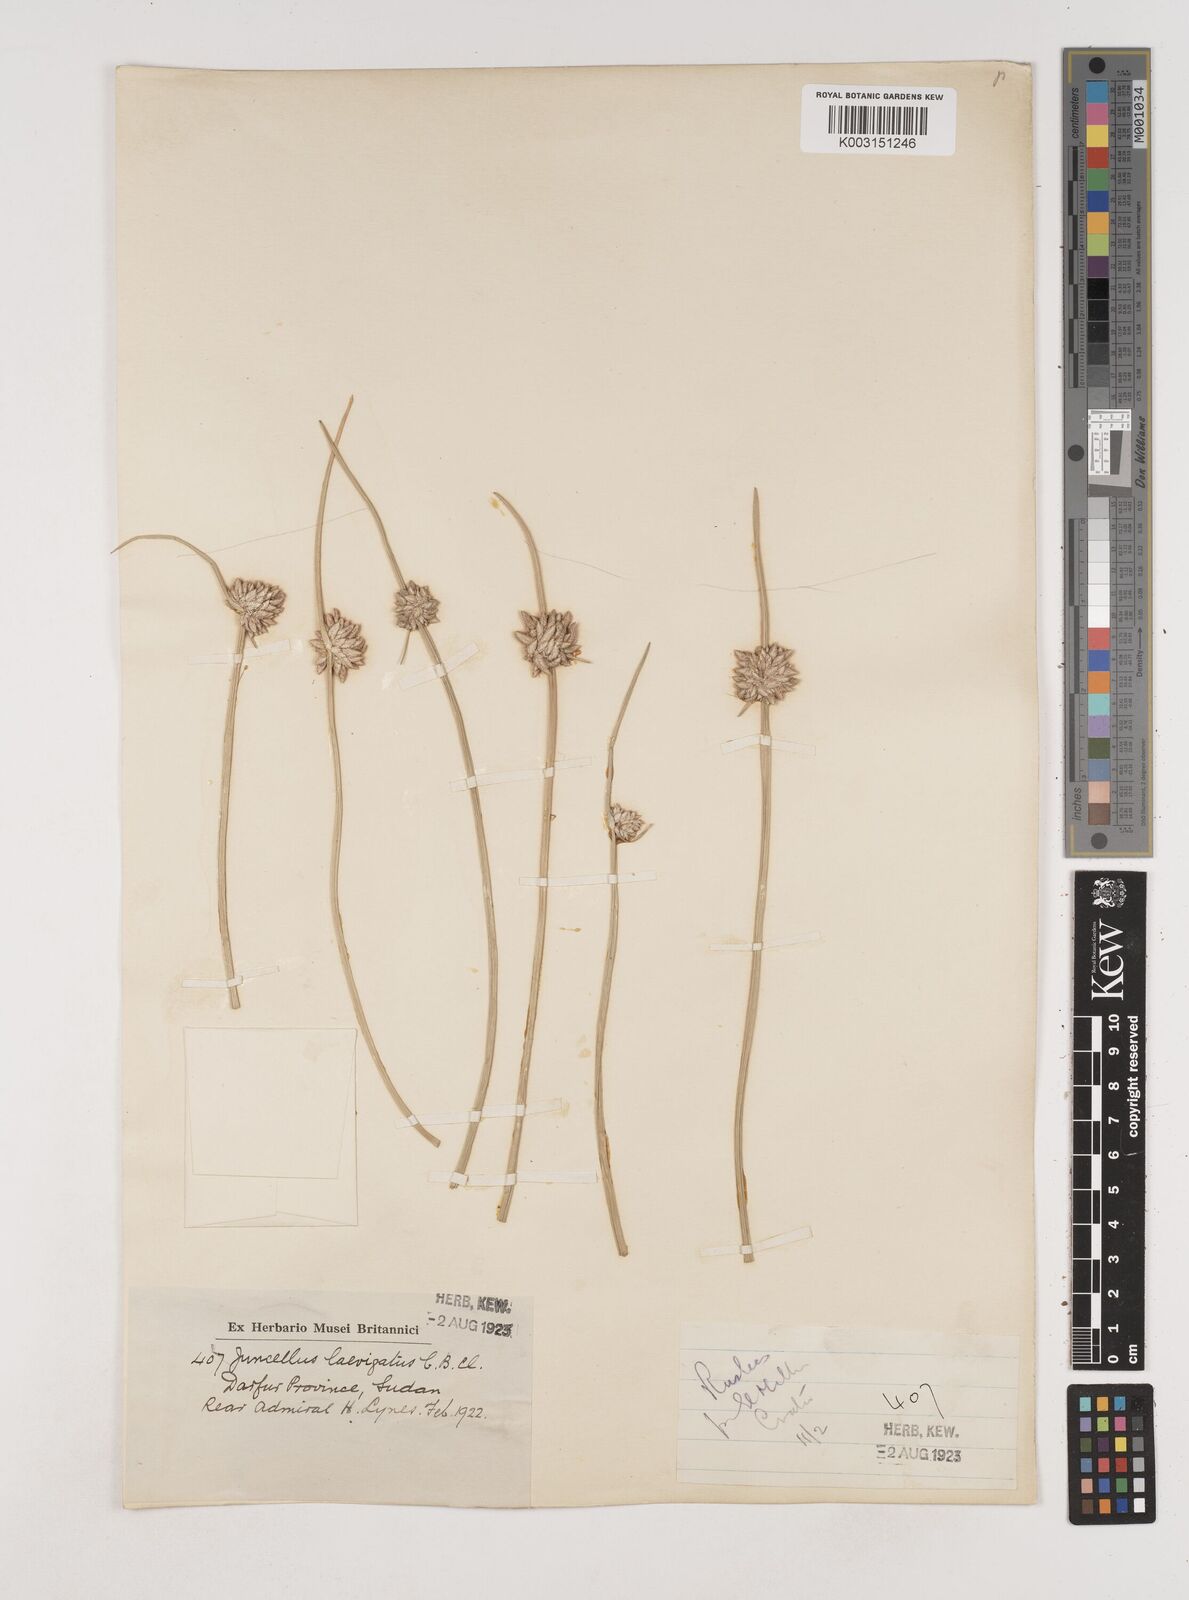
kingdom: Plantae
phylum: Tracheophyta
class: Liliopsida
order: Poales
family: Cyperaceae
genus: Cyperus
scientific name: Cyperus laevigatus
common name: Smooth flat sedge
